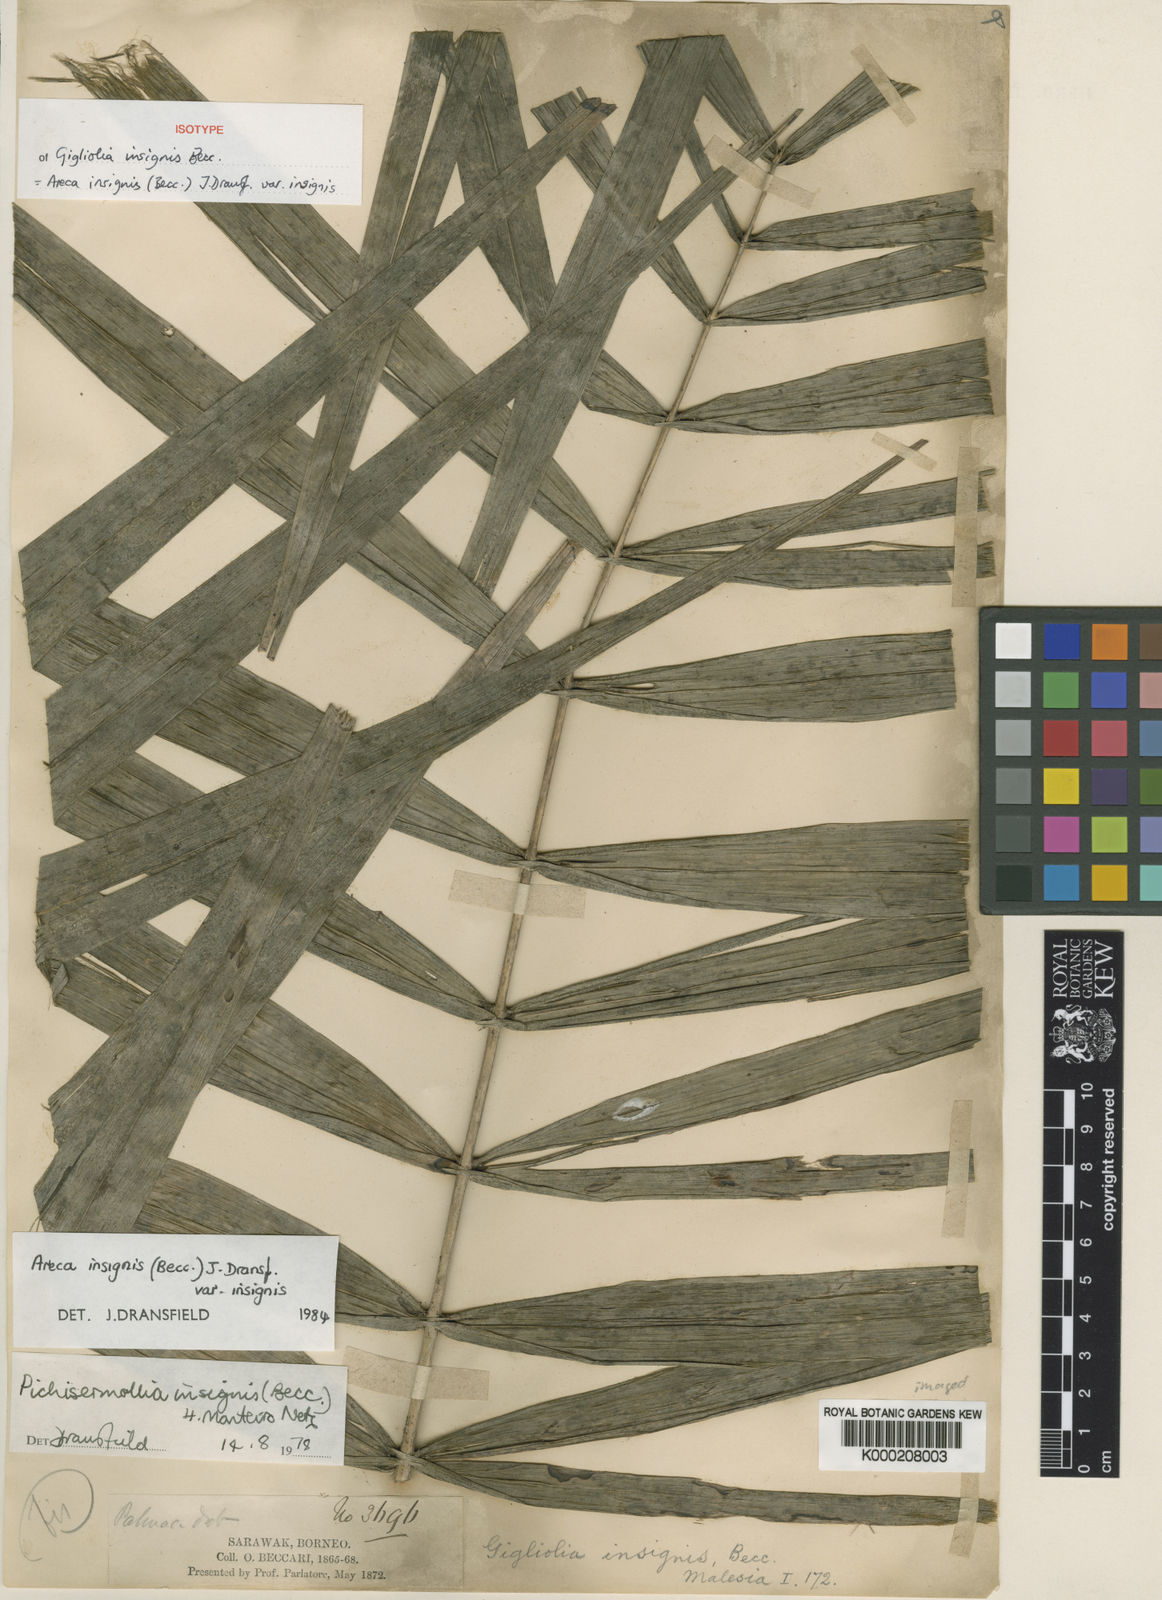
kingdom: Plantae
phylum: Tracheophyta
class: Liliopsida
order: Arecales
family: Arecaceae
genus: Areca
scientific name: Areca insignis
